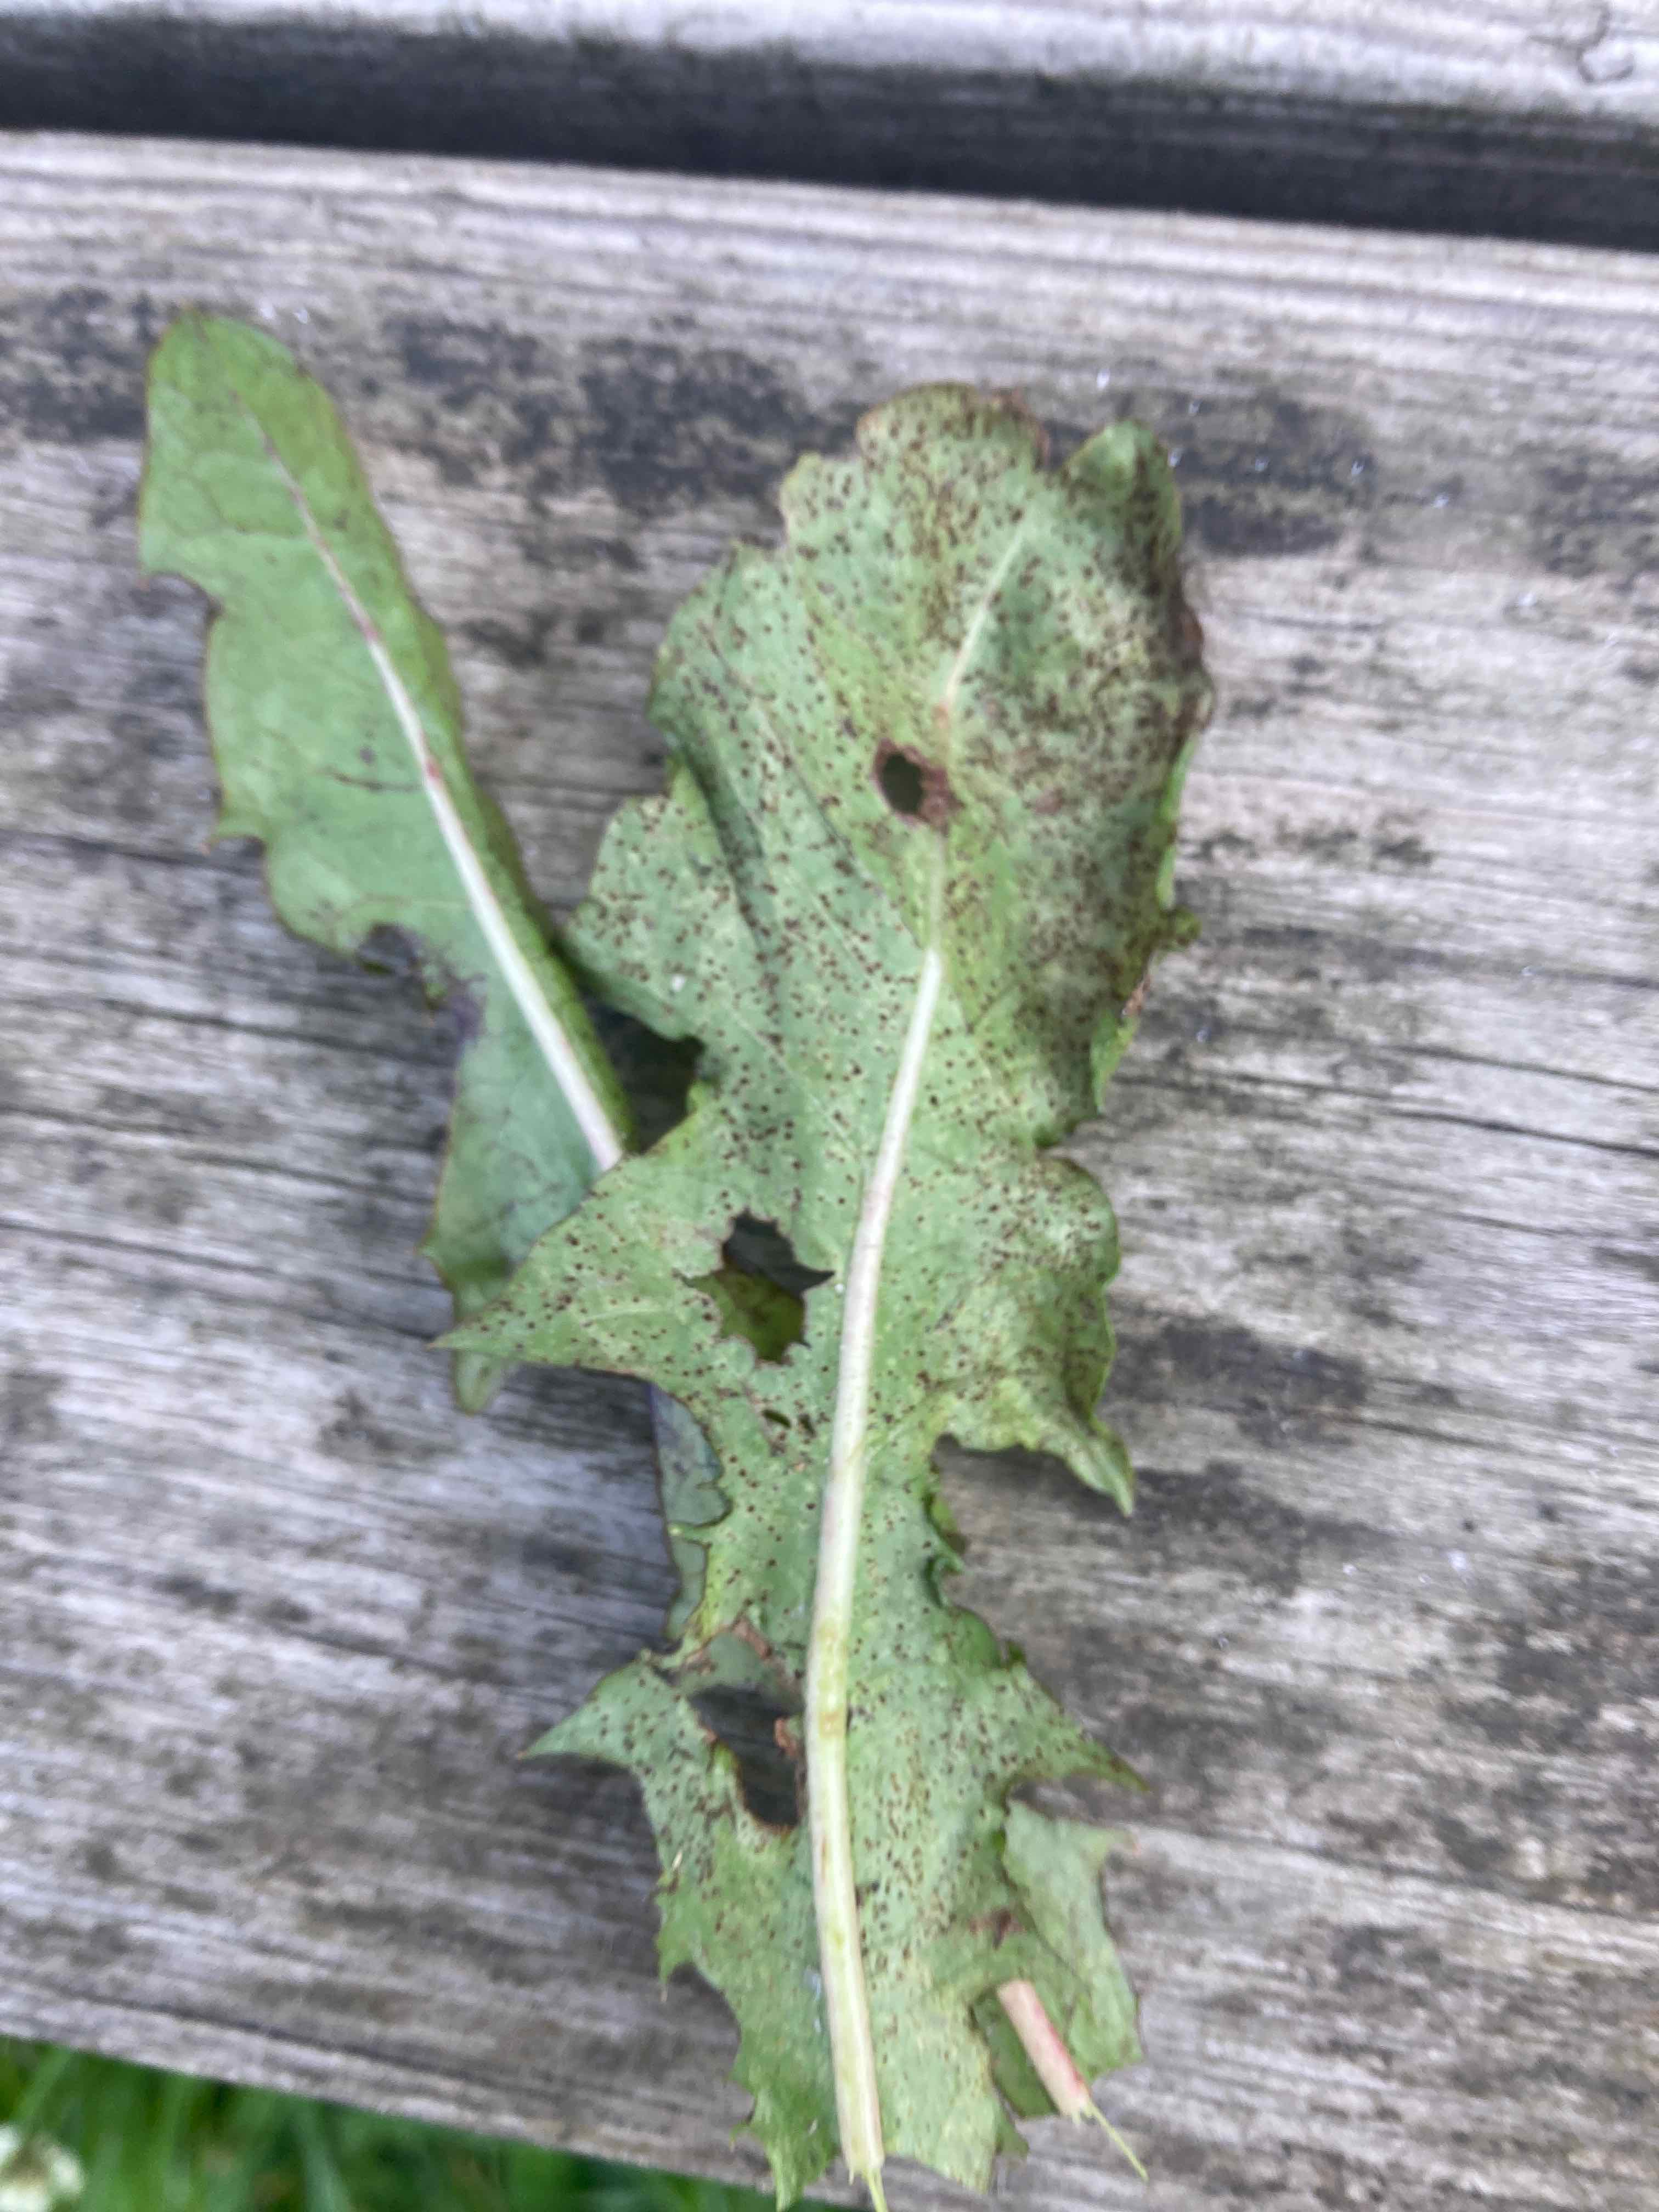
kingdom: Fungi
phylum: Basidiomycota
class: Pucciniomycetes
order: Pucciniales
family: Pucciniaceae
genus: Puccinia
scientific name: Puccinia hieracii
